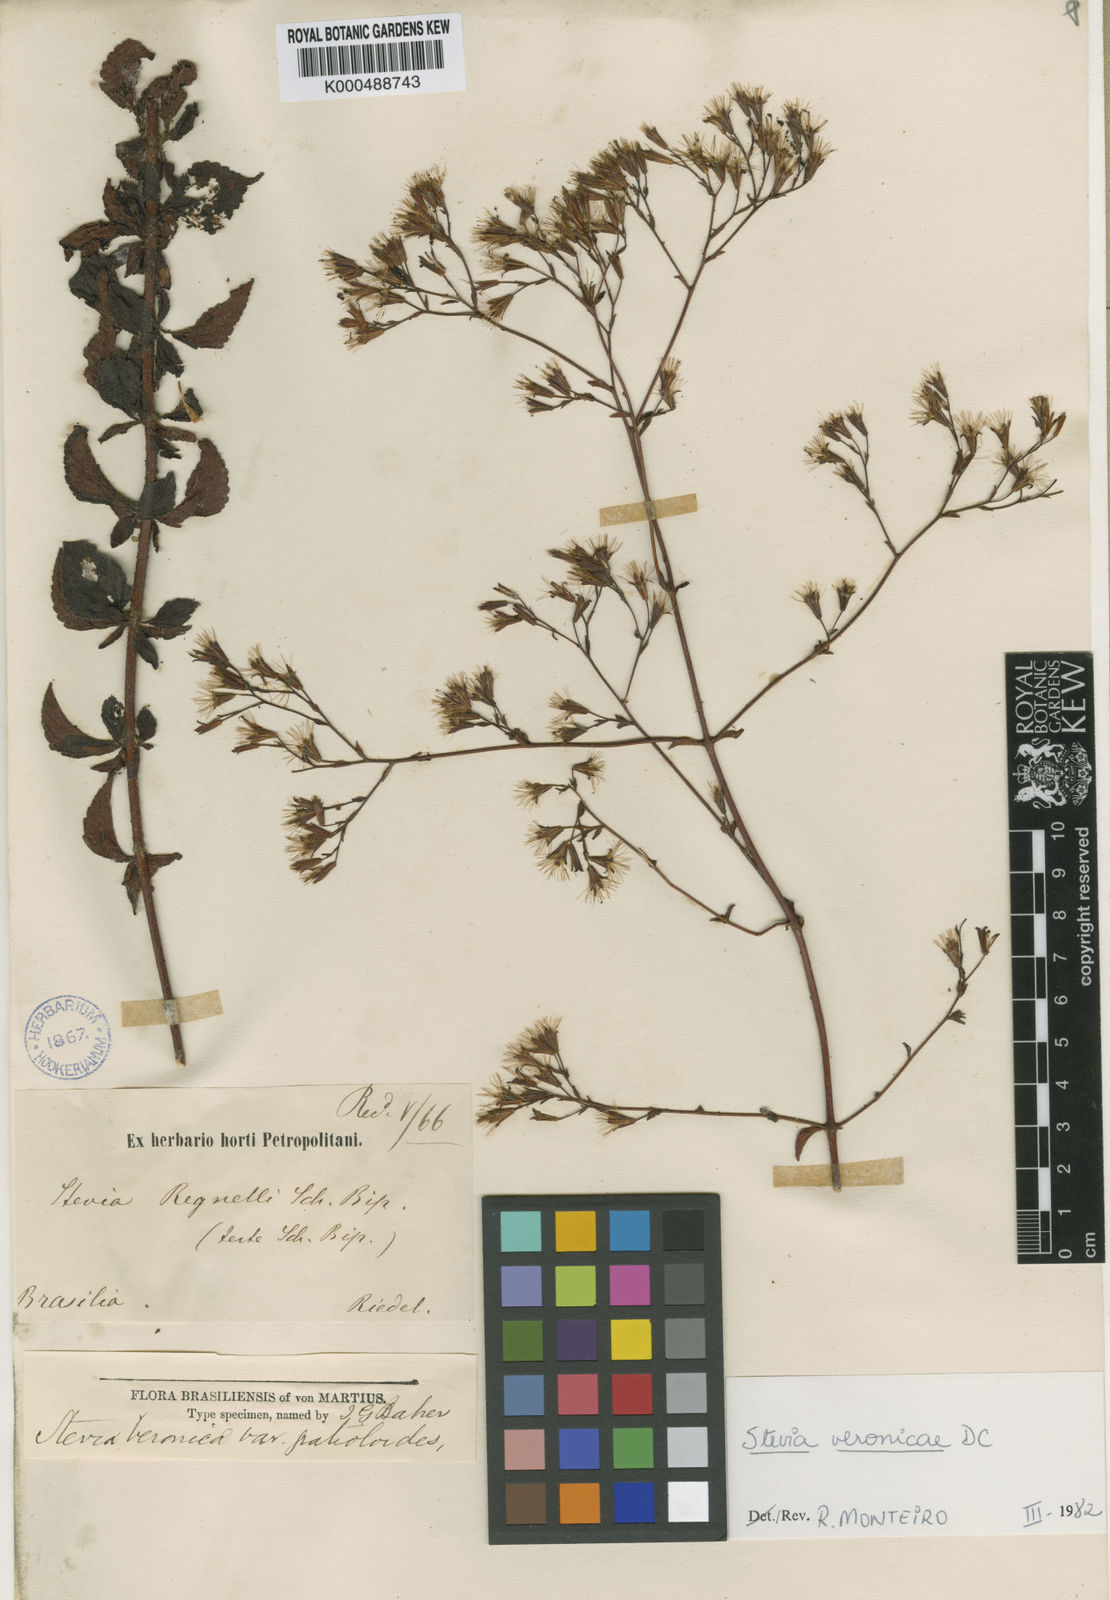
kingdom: Plantae
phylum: Tracheophyta
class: Magnoliopsida
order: Asterales
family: Asteraceae
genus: Stevia
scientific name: Stevia gratioloides
